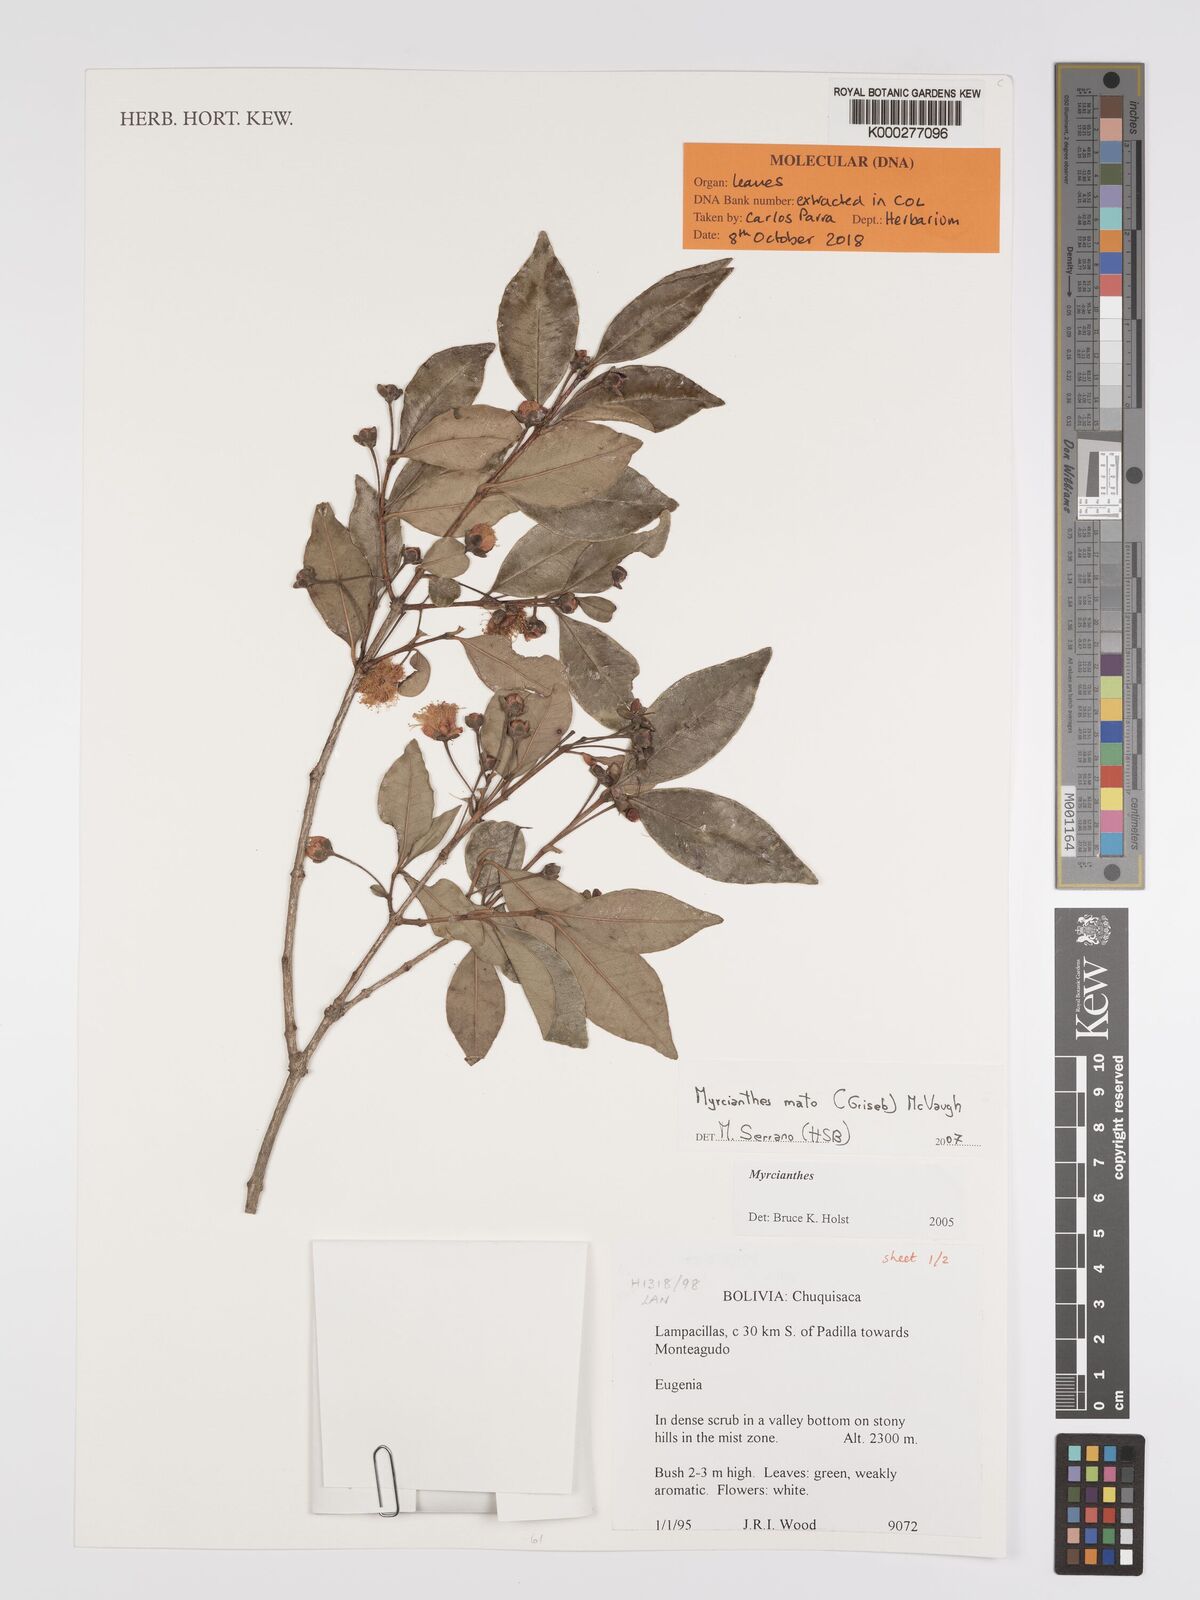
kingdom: Plantae
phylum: Tracheophyta
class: Magnoliopsida
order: Myrtales
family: Myrtaceae
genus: Myrcianthes
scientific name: Myrcianthes mato
